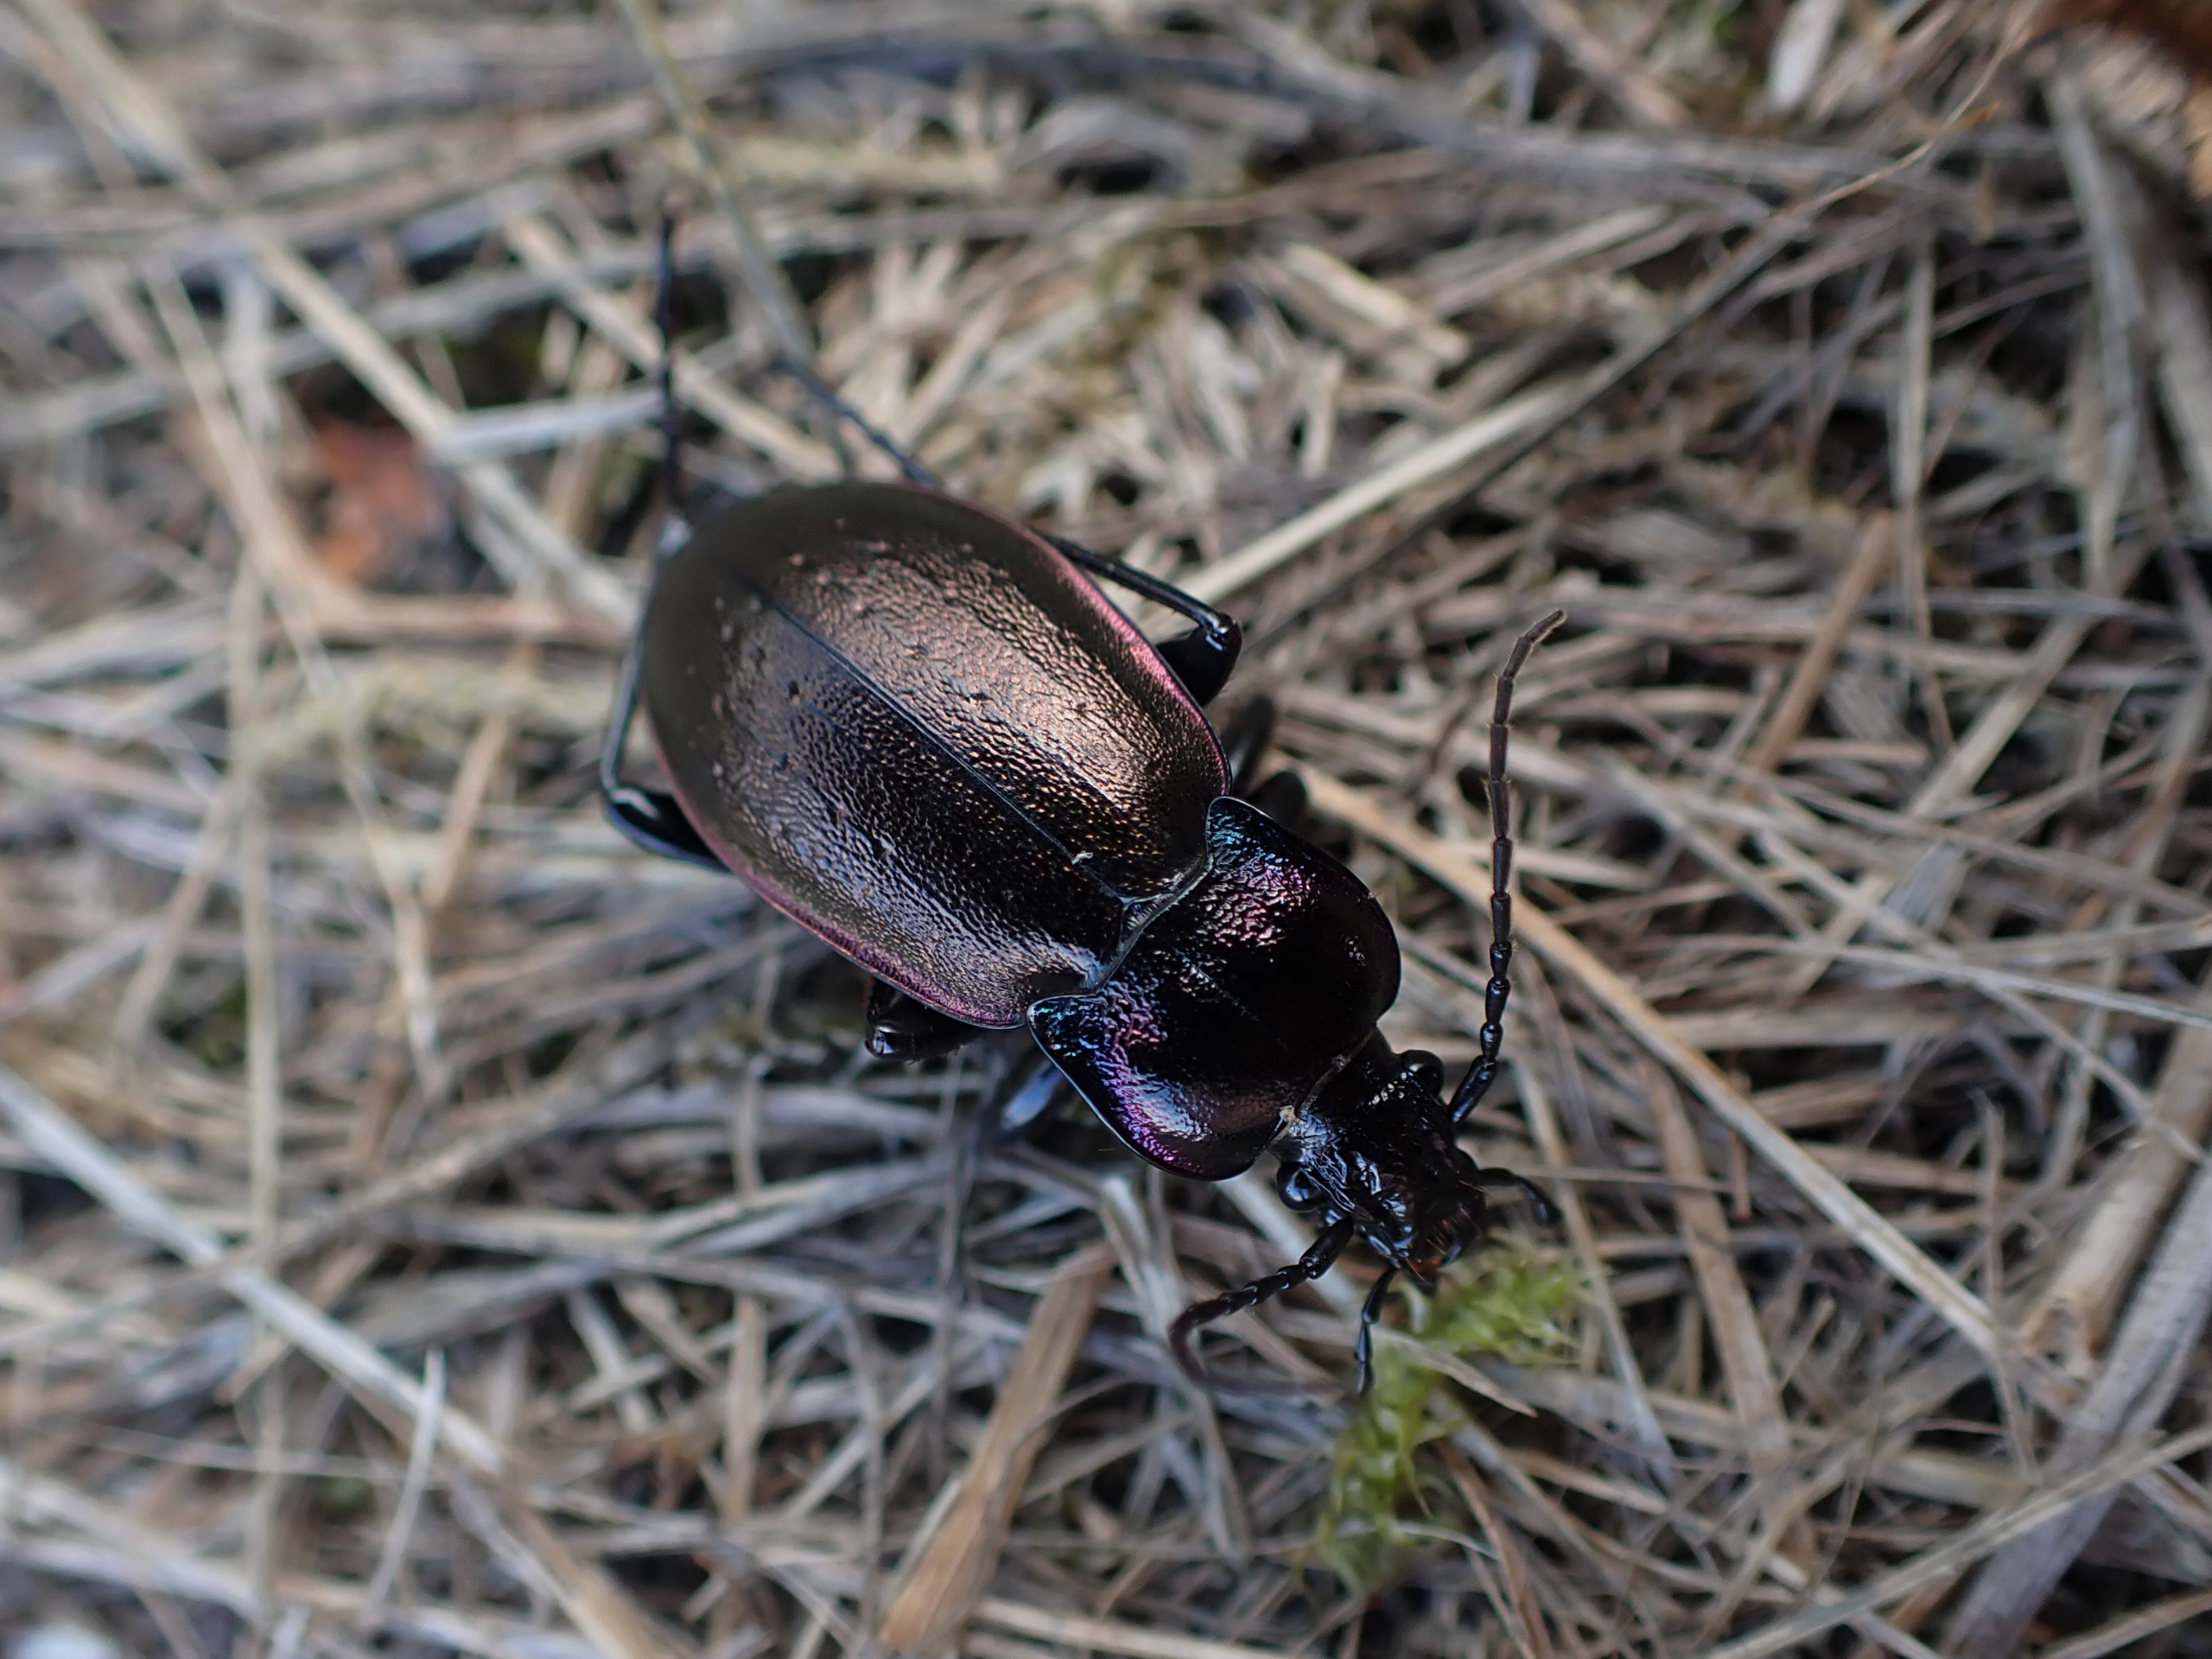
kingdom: Animalia
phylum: Arthropoda
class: Insecta
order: Coleoptera
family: Carabidae
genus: Carabus
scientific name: Carabus nemoralis
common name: Kratløber
